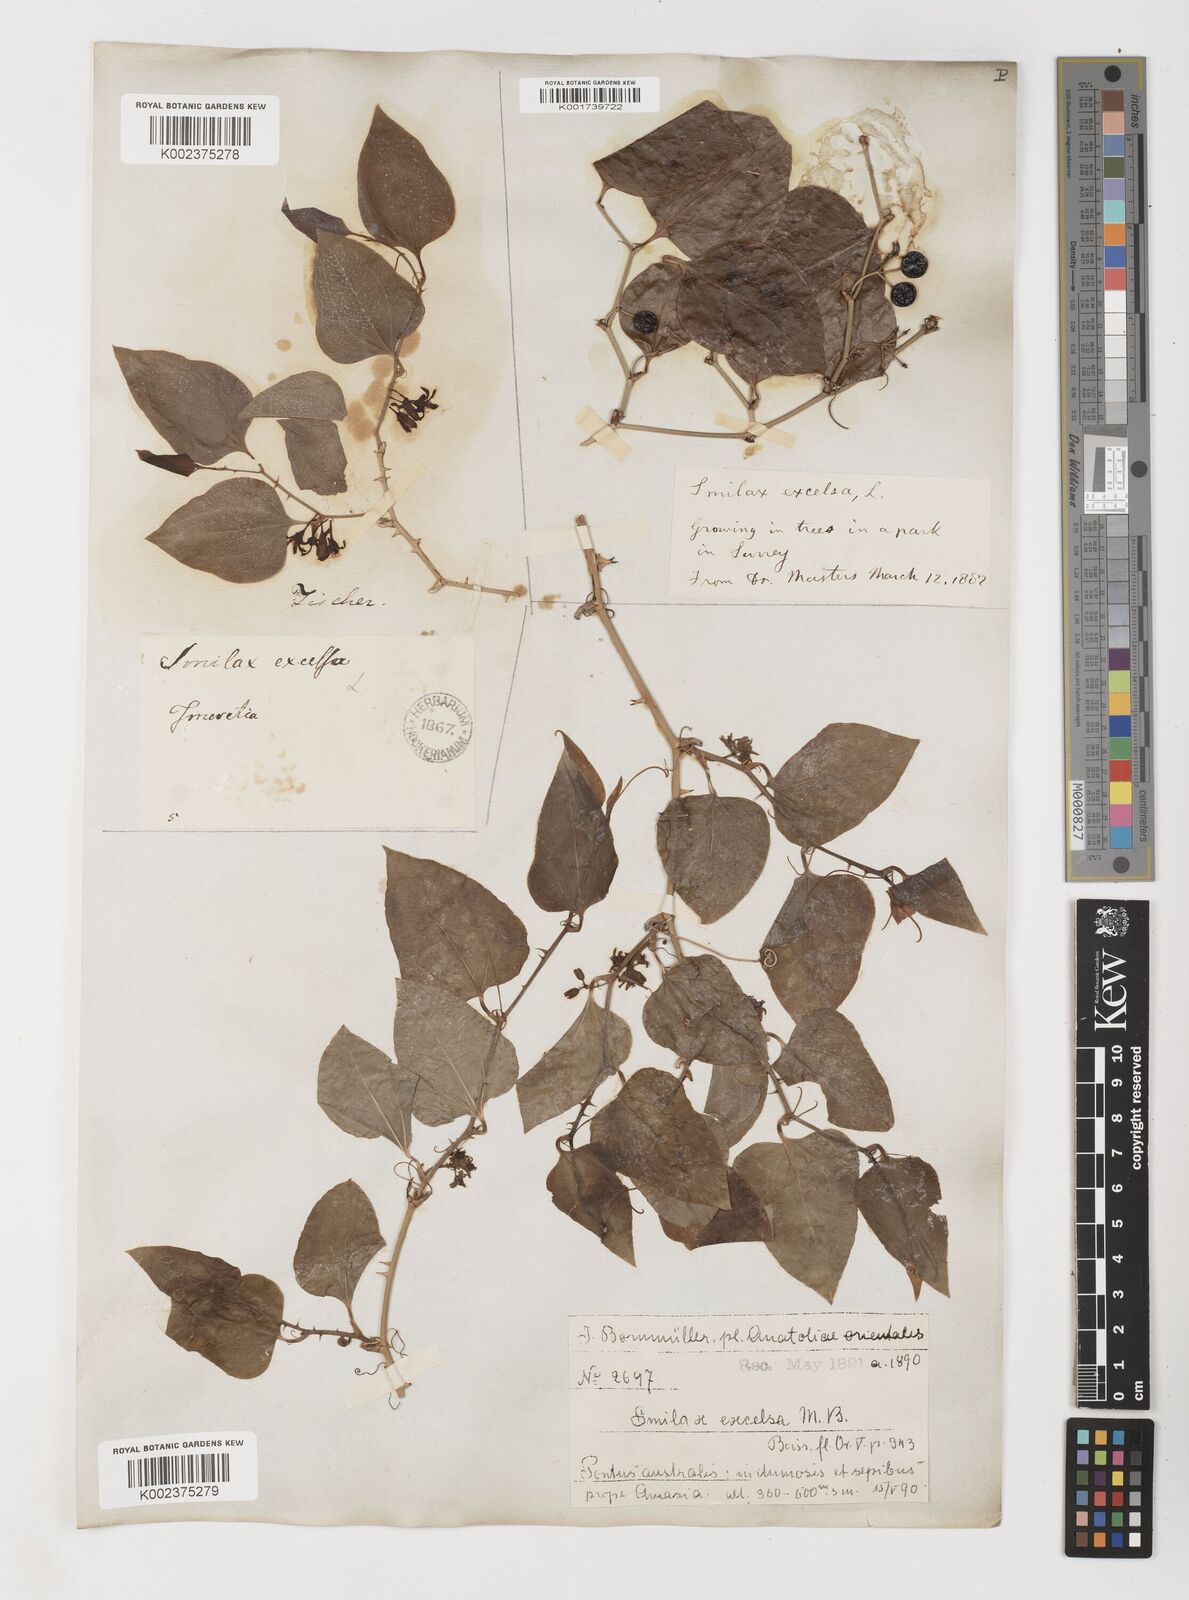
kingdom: Plantae
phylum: Tracheophyta
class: Liliopsida
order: Liliales
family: Smilacaceae
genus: Smilax
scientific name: Smilax excelsa
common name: Larger smilax
